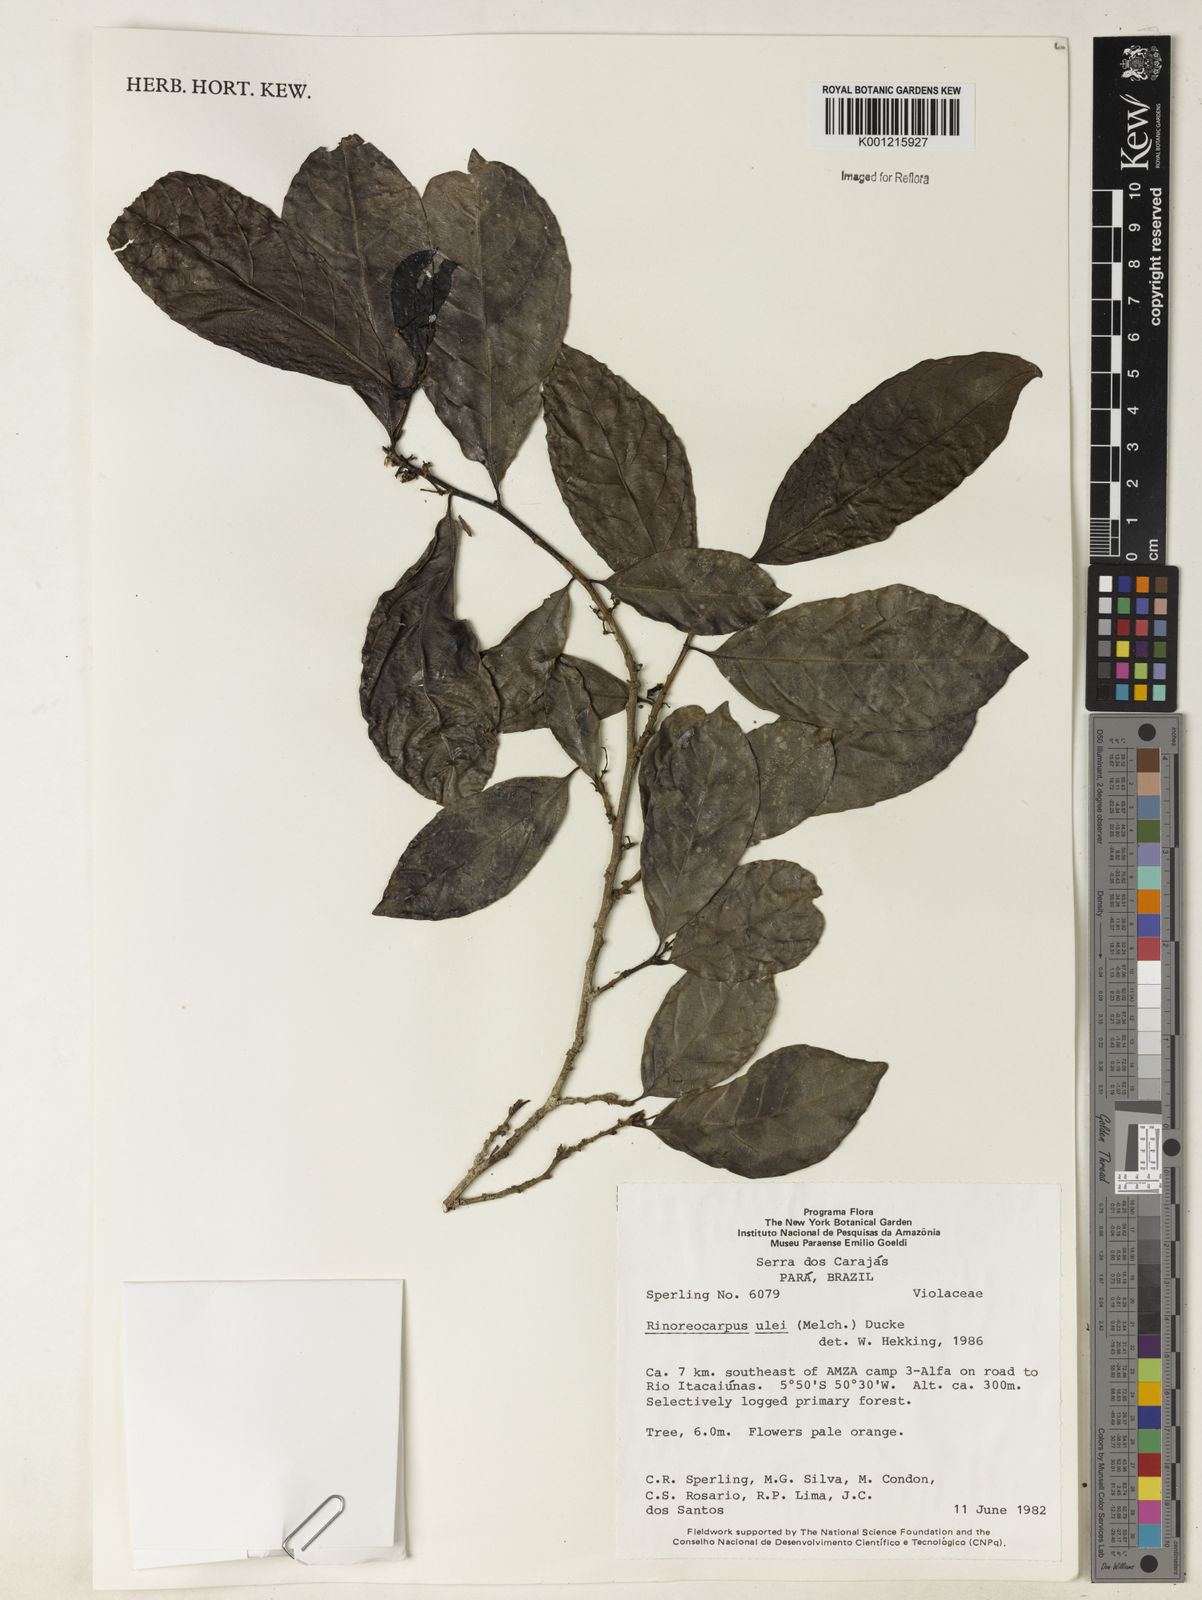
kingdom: Plantae
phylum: Tracheophyta
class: Magnoliopsida
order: Malpighiales
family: Violaceae
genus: Rinorea
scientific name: Rinorea
